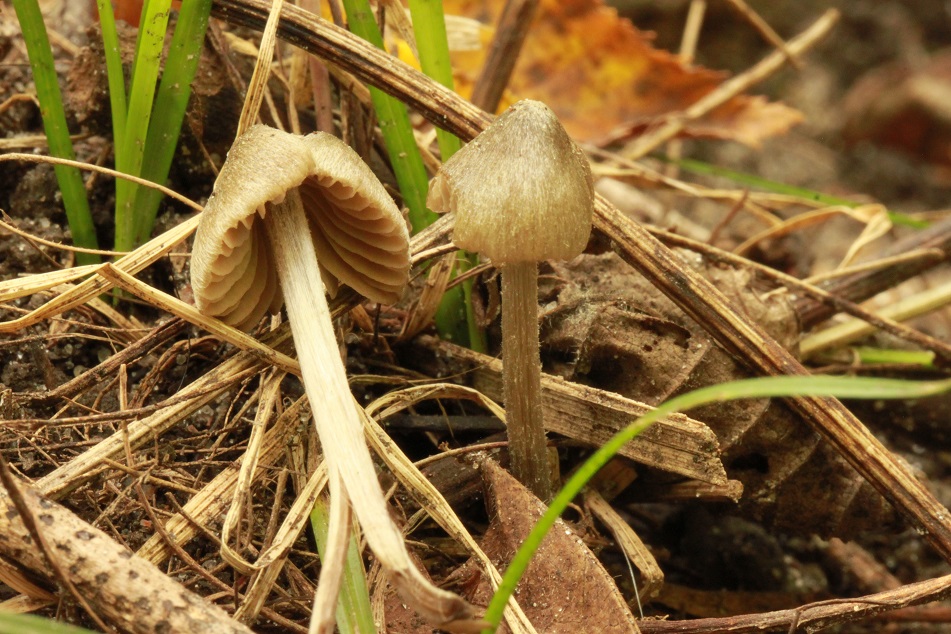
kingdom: Fungi
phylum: Basidiomycota
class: Agaricomycetes
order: Agaricales
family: Entolomataceae
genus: Entoloma
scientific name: Entoloma araneosum
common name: spindelvævs-rødblad
